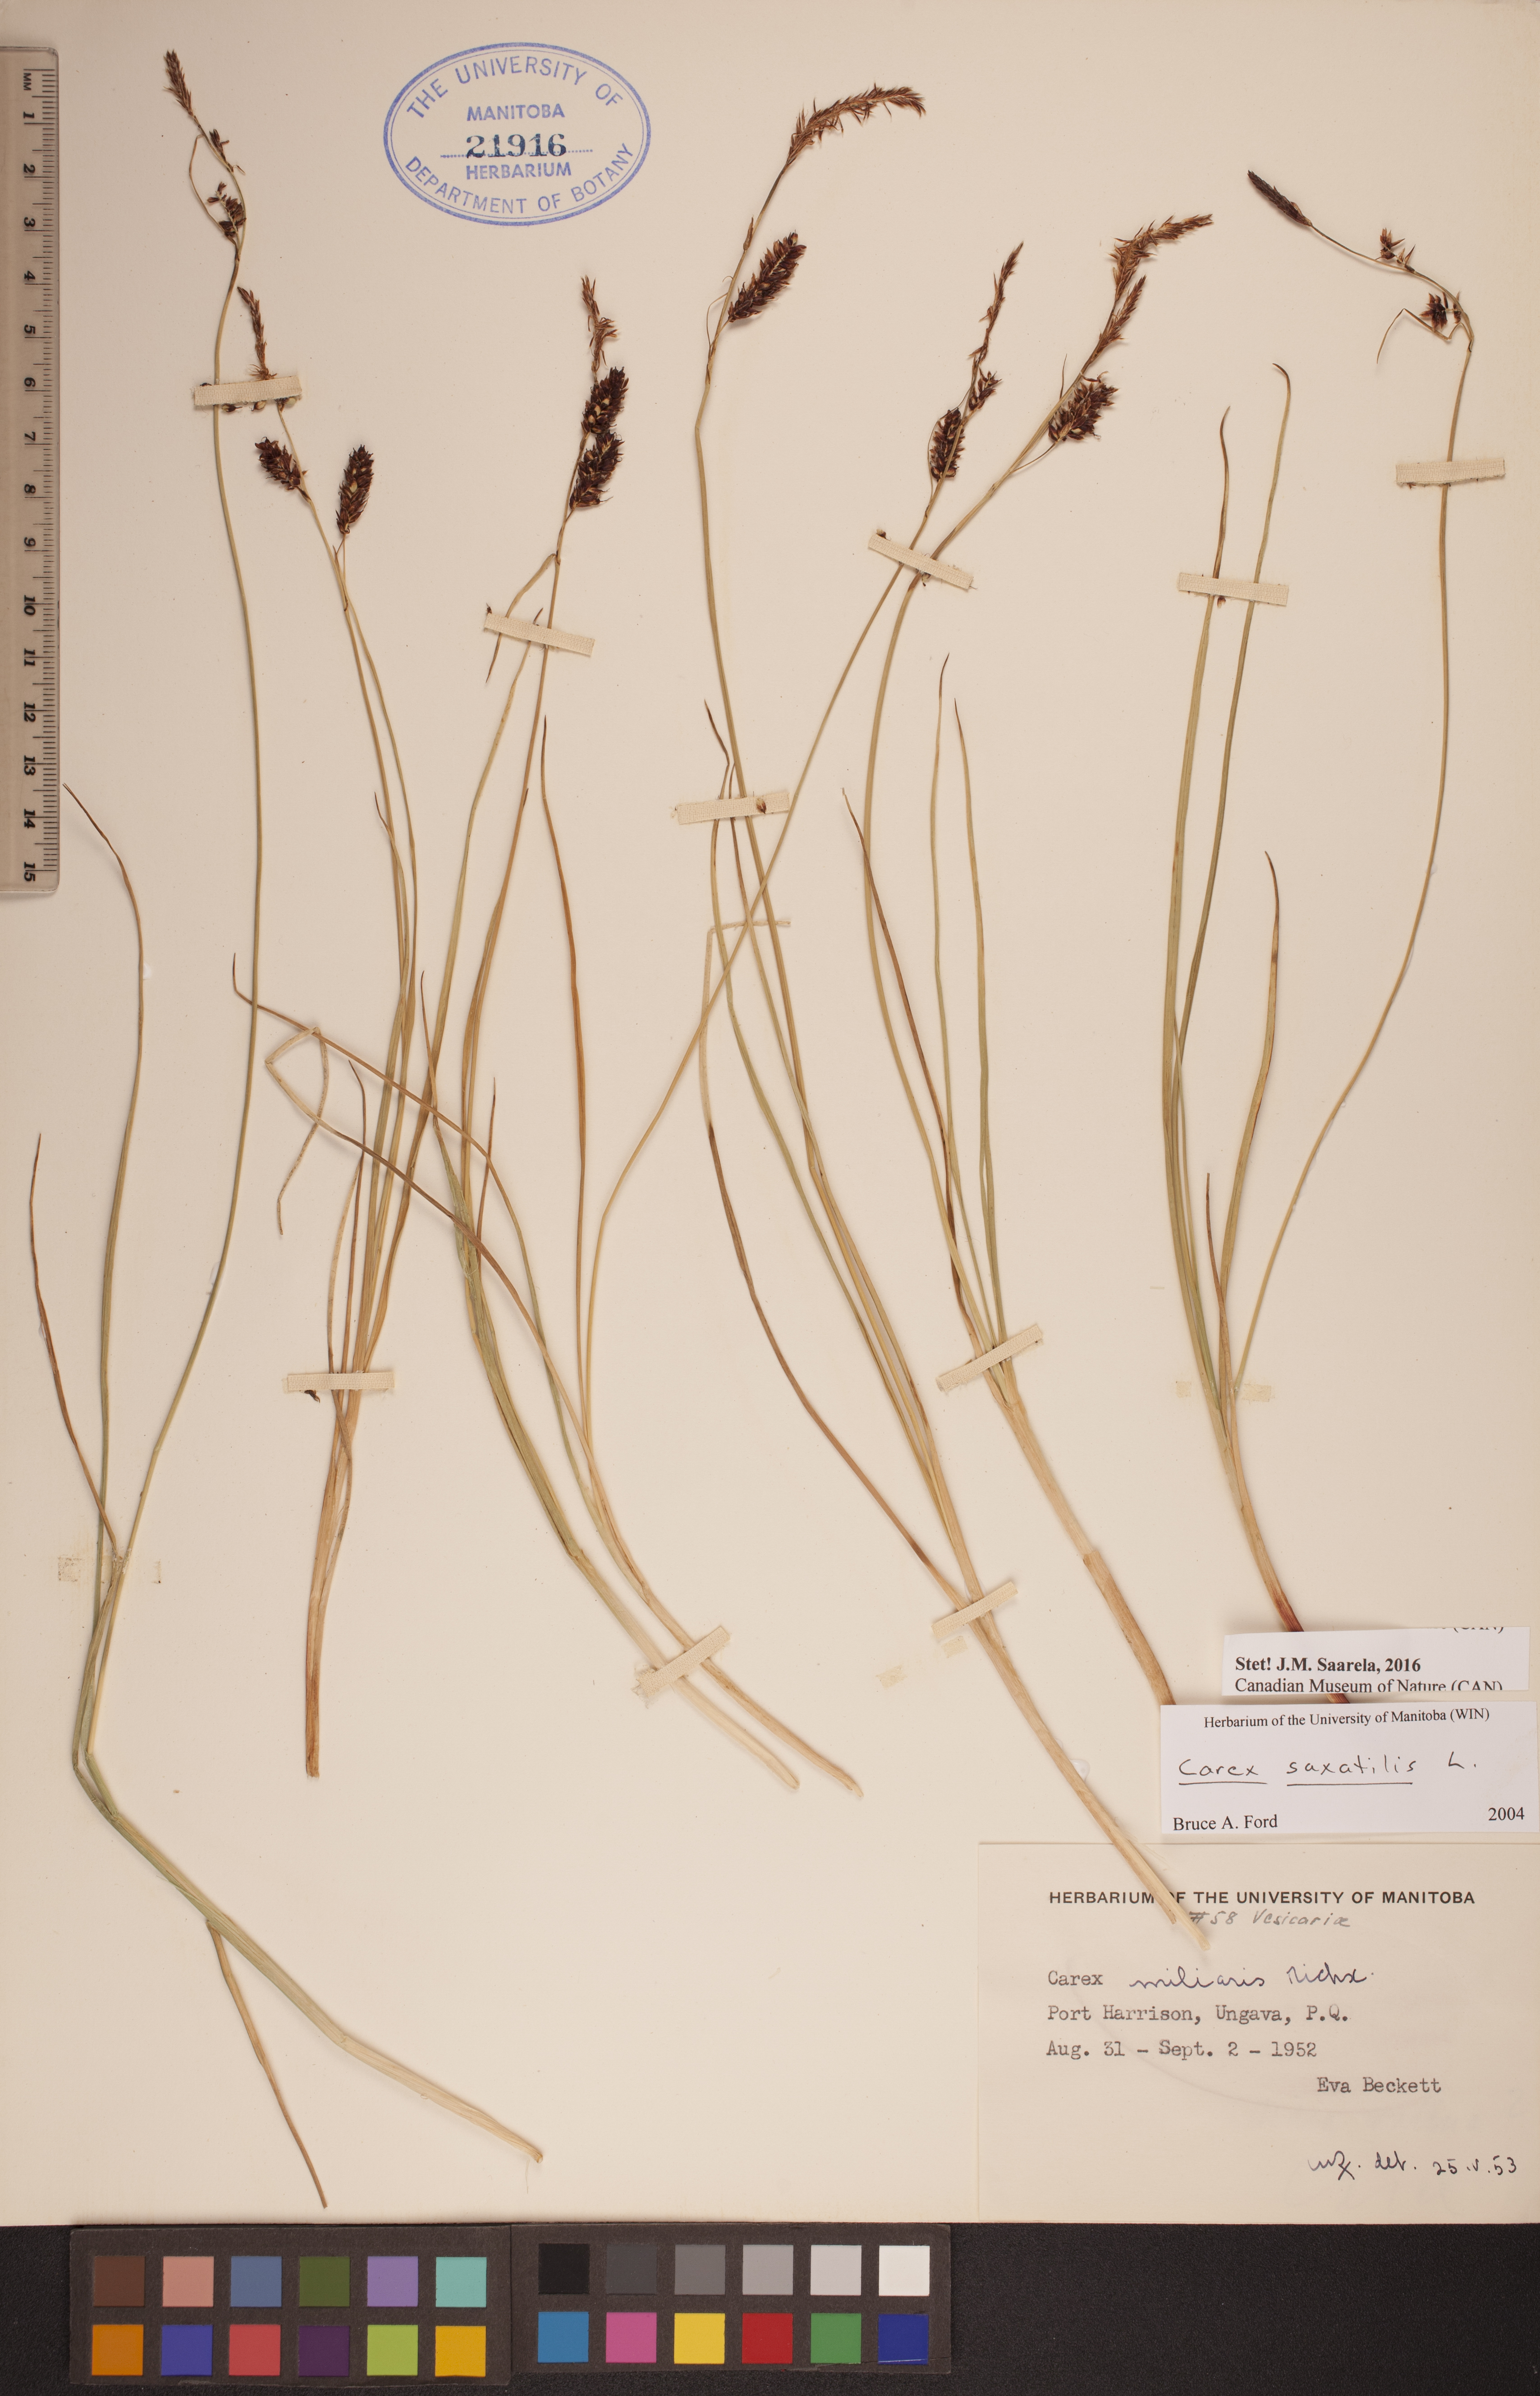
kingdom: Plantae
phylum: Tracheophyta
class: Liliopsida
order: Poales
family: Cyperaceae
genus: Carex
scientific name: Carex saxatilis
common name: Russet sedge
